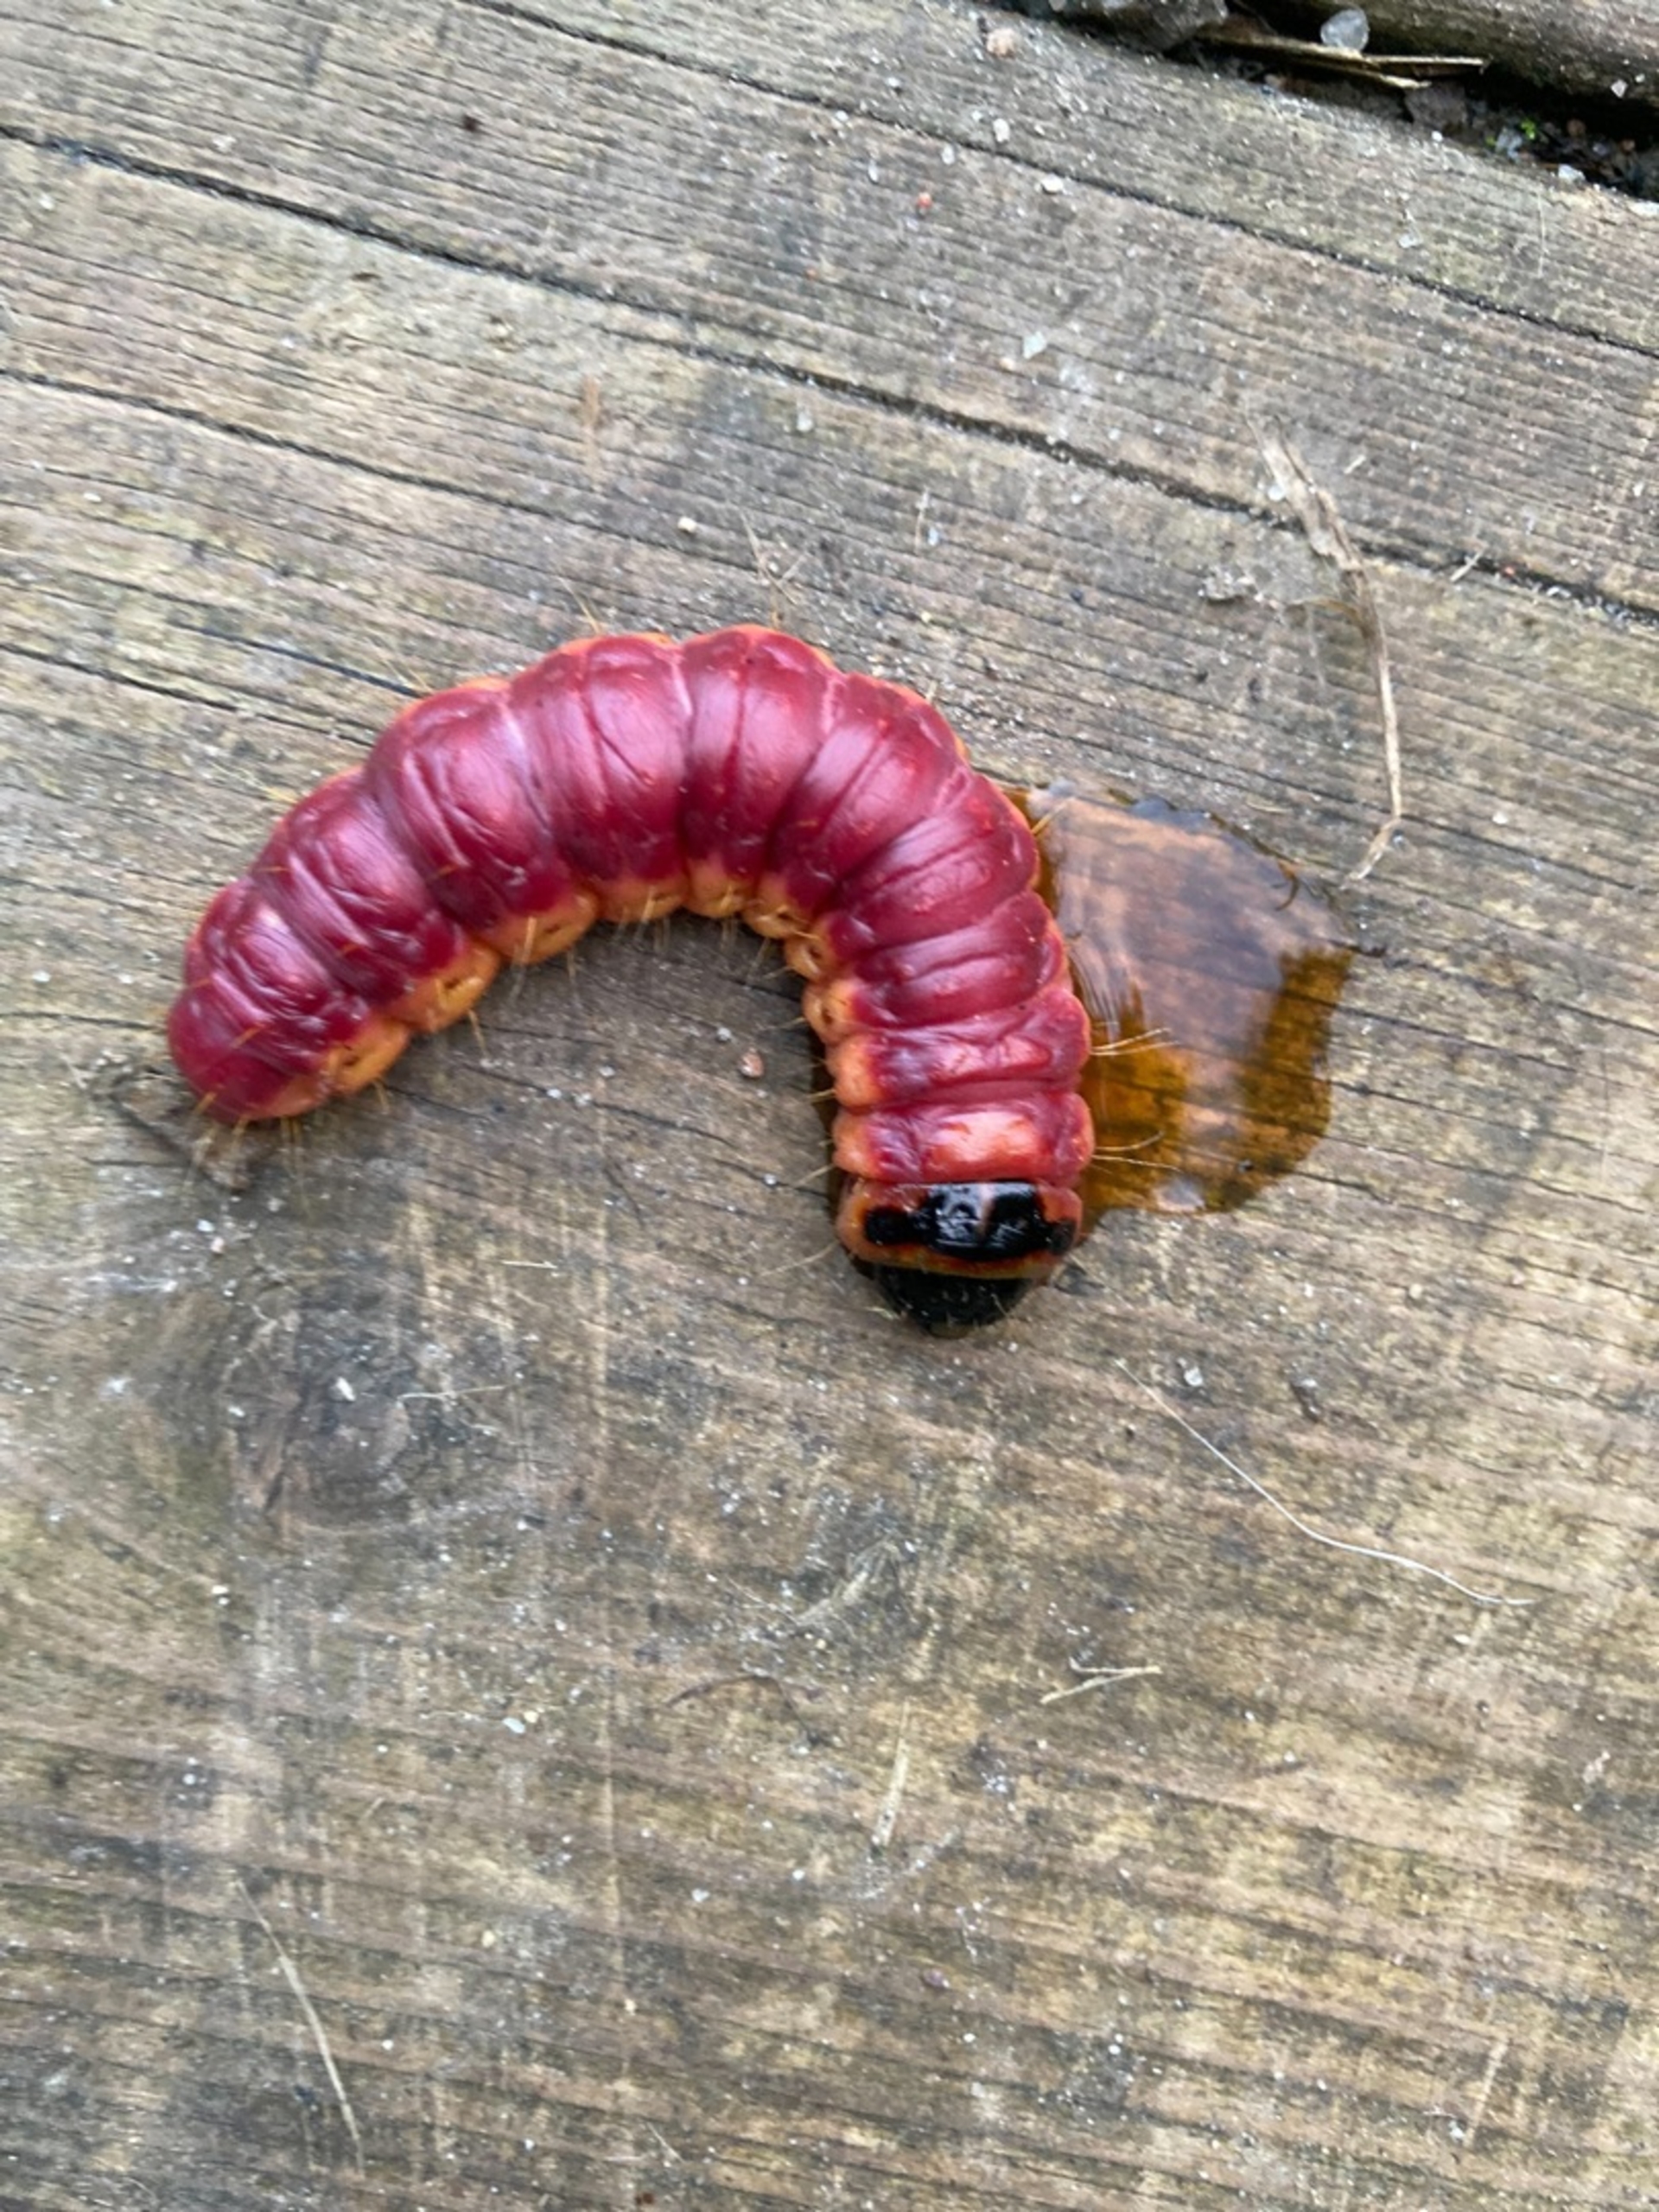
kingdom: Animalia
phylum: Arthropoda
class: Insecta
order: Lepidoptera
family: Cossidae
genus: Cossus
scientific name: Cossus cossus
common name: Pileborer
